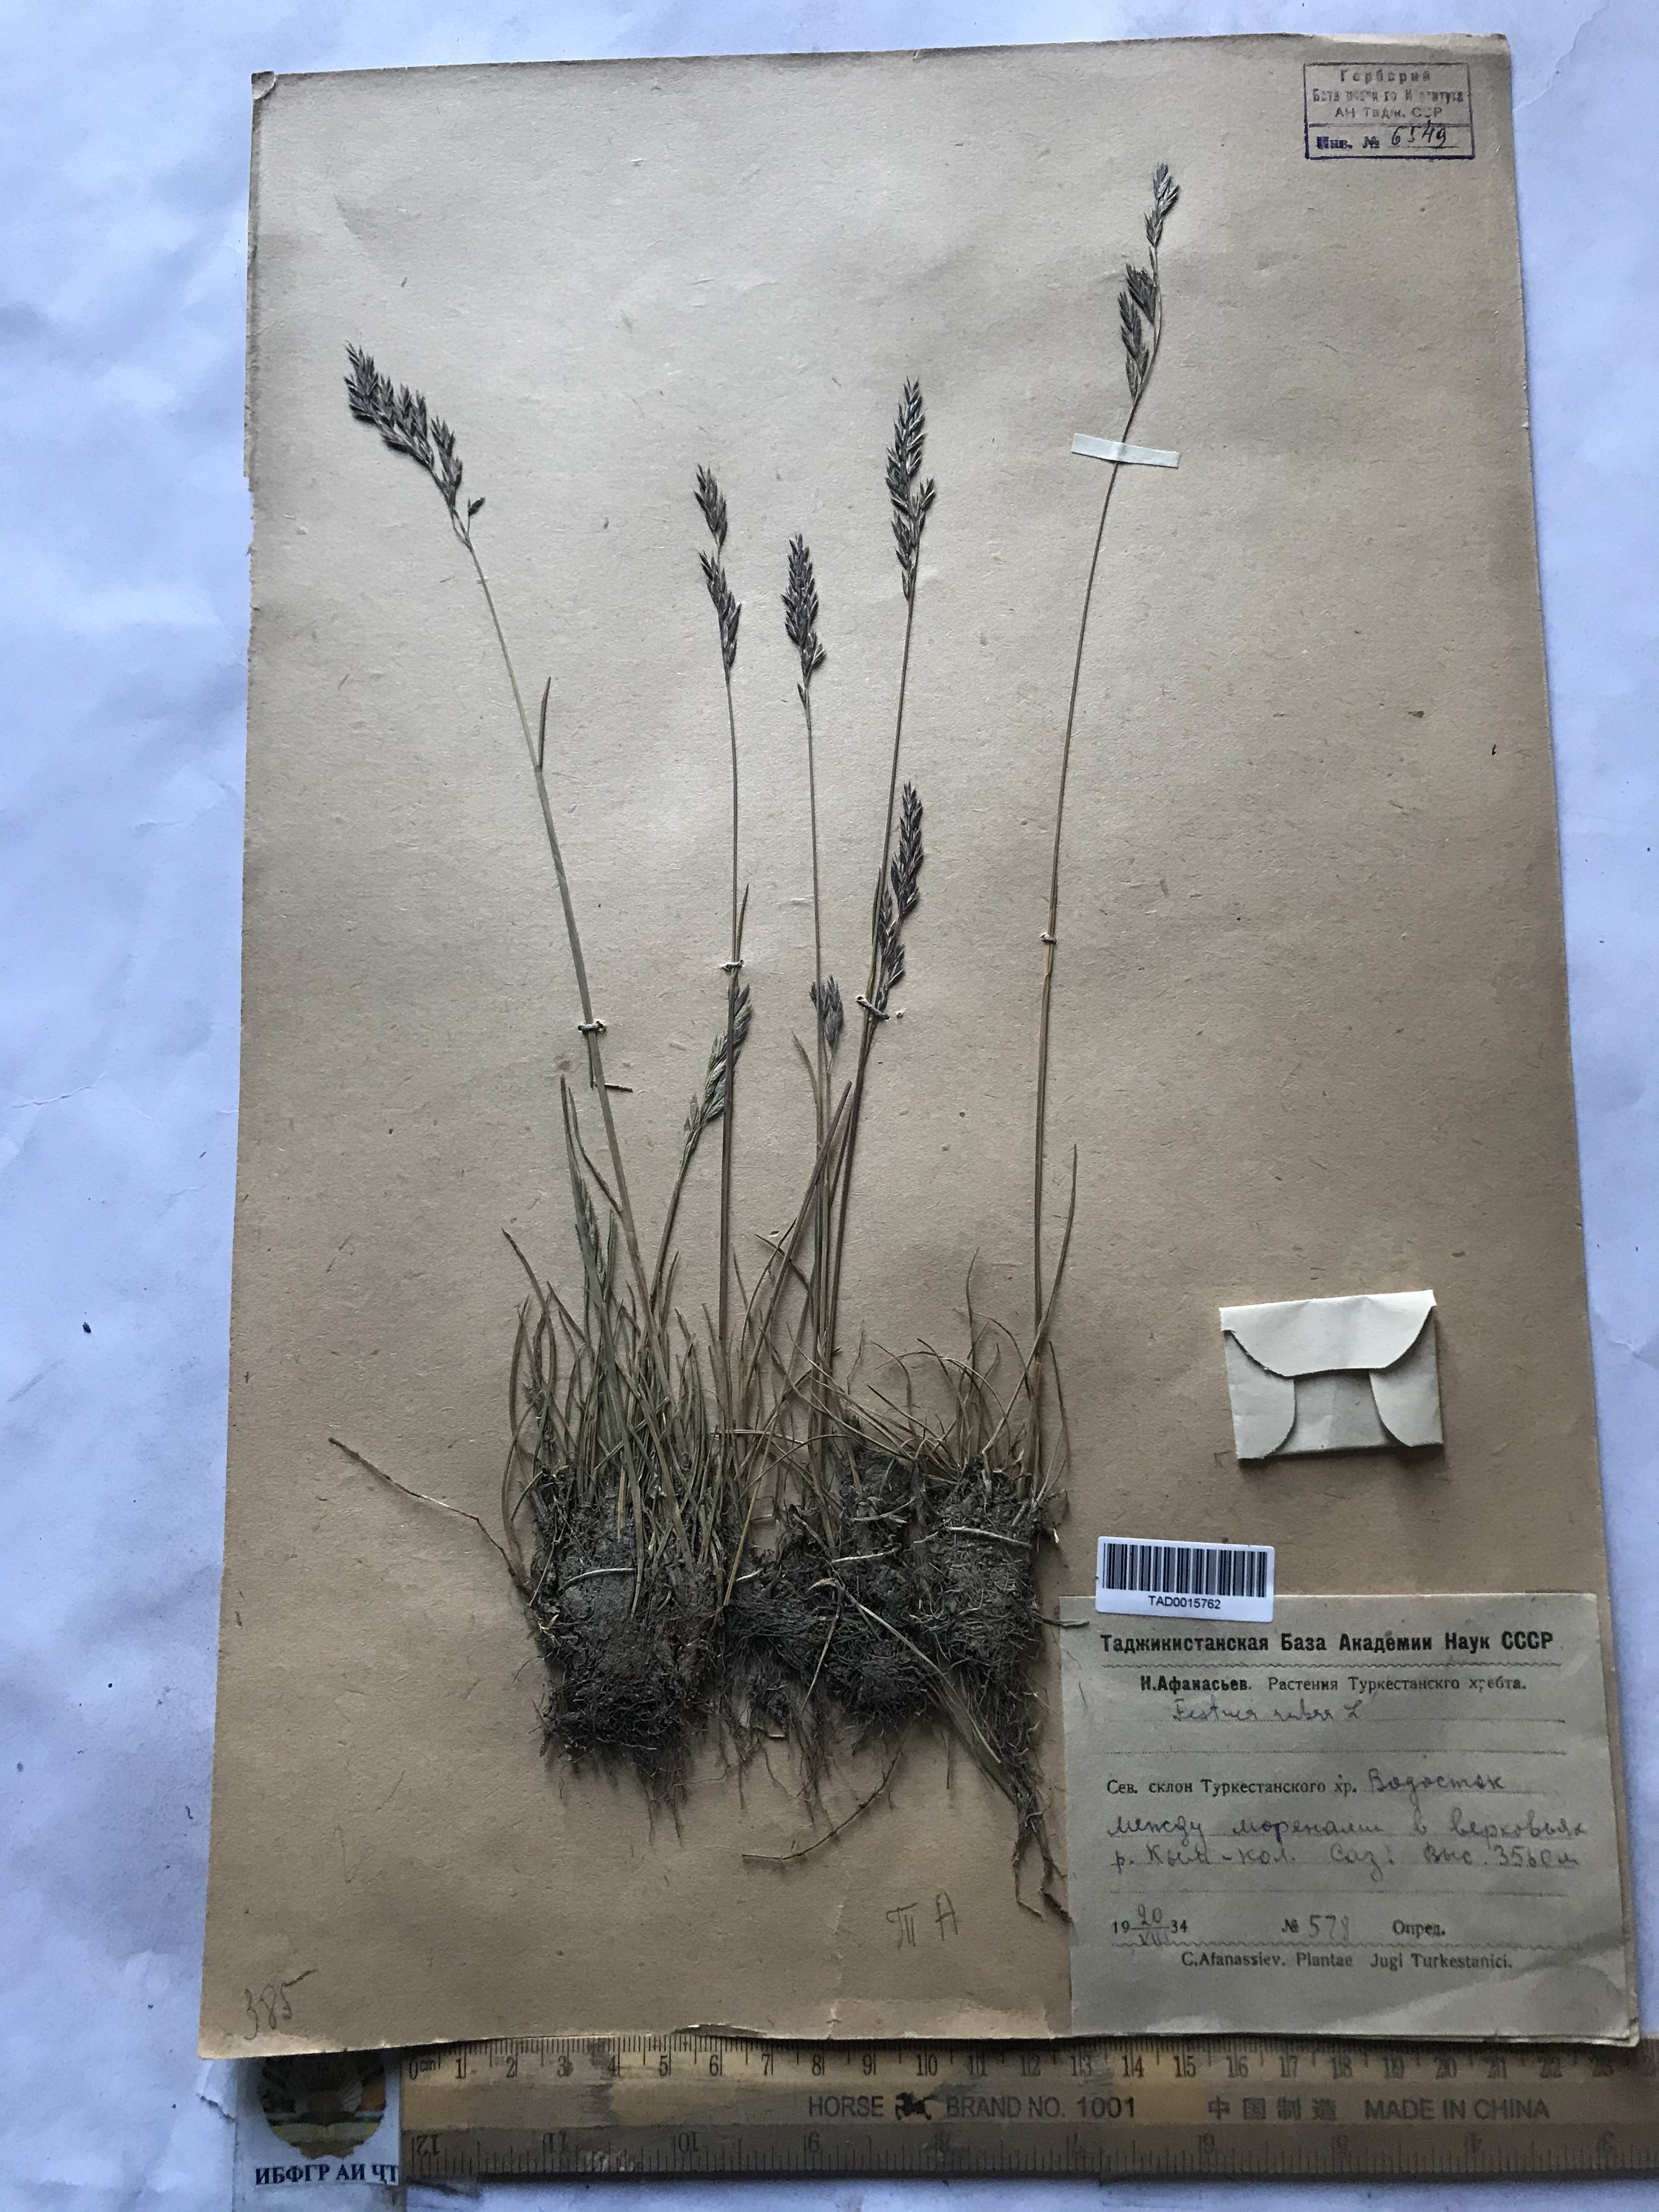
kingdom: Plantae
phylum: Tracheophyta
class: Liliopsida
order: Poales
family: Poaceae
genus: Festuca
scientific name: Festuca rubra
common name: Red fescue
